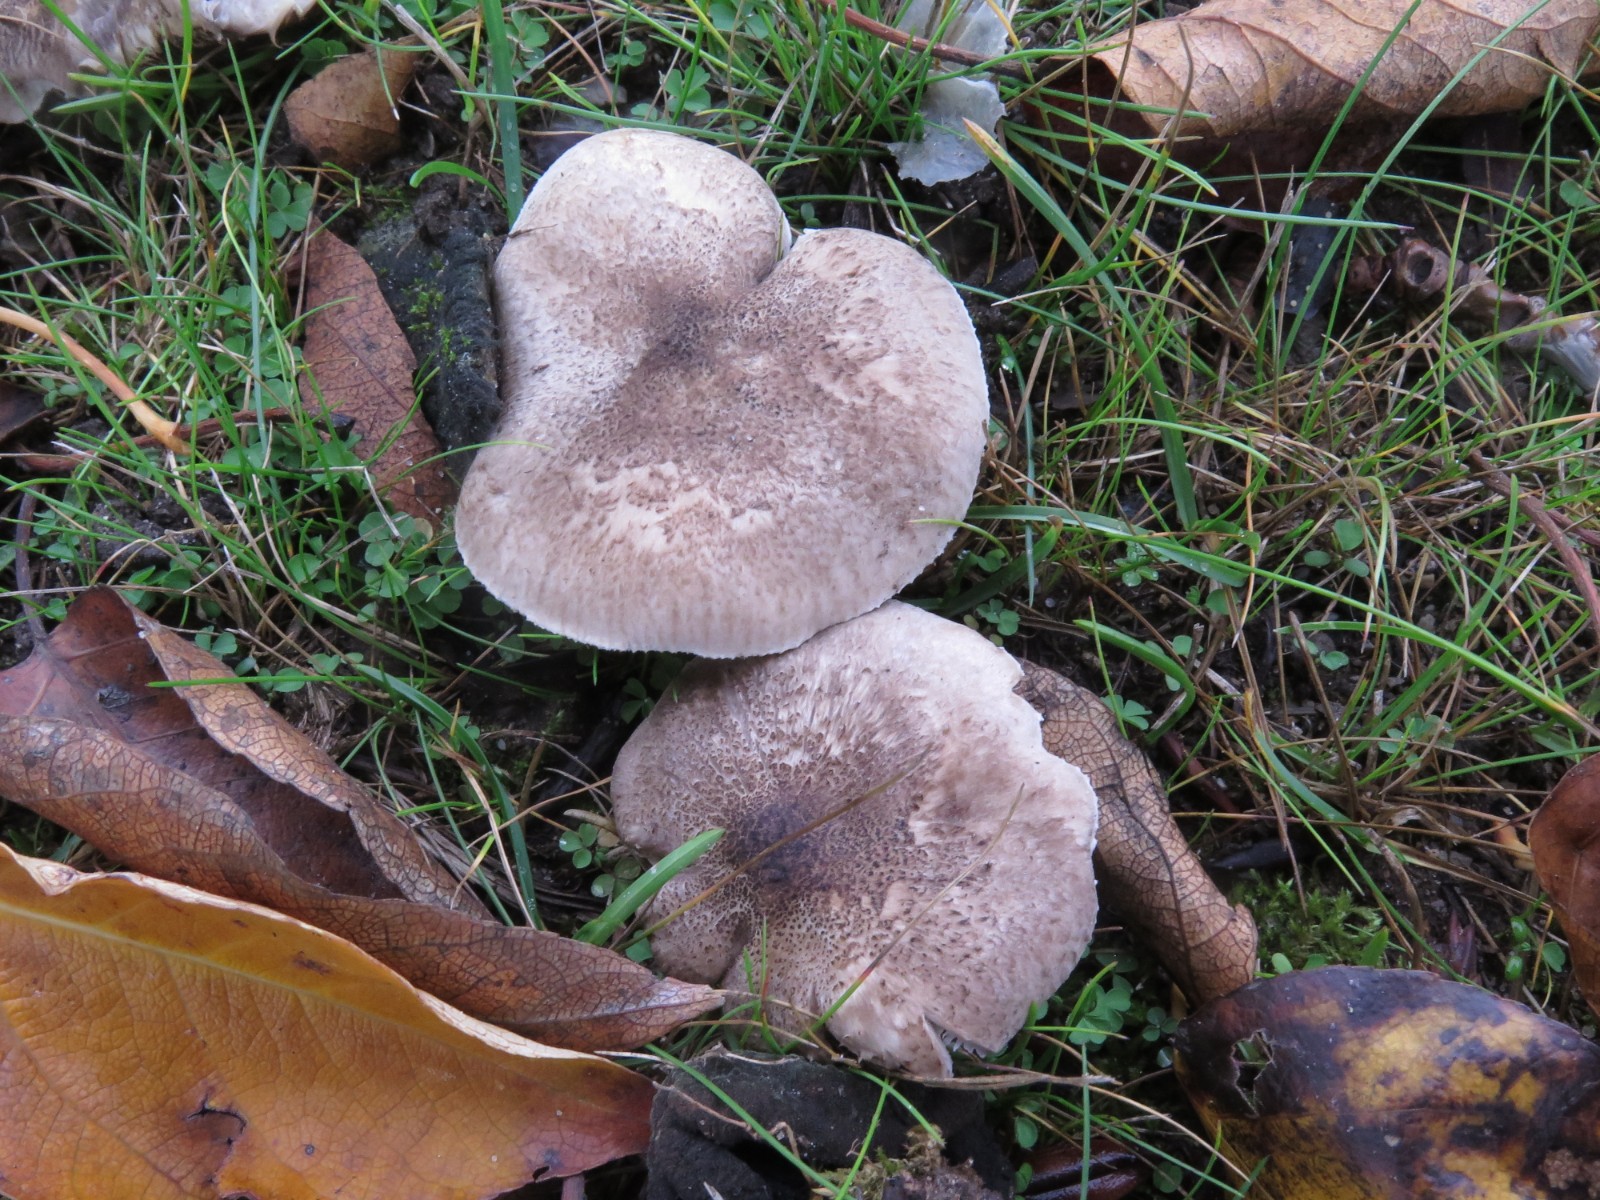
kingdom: Fungi
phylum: Basidiomycota
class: Agaricomycetes
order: Agaricales
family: Tricholomataceae
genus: Tricholoma
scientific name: Tricholoma scalpturatum
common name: gulplettet ridderhat
